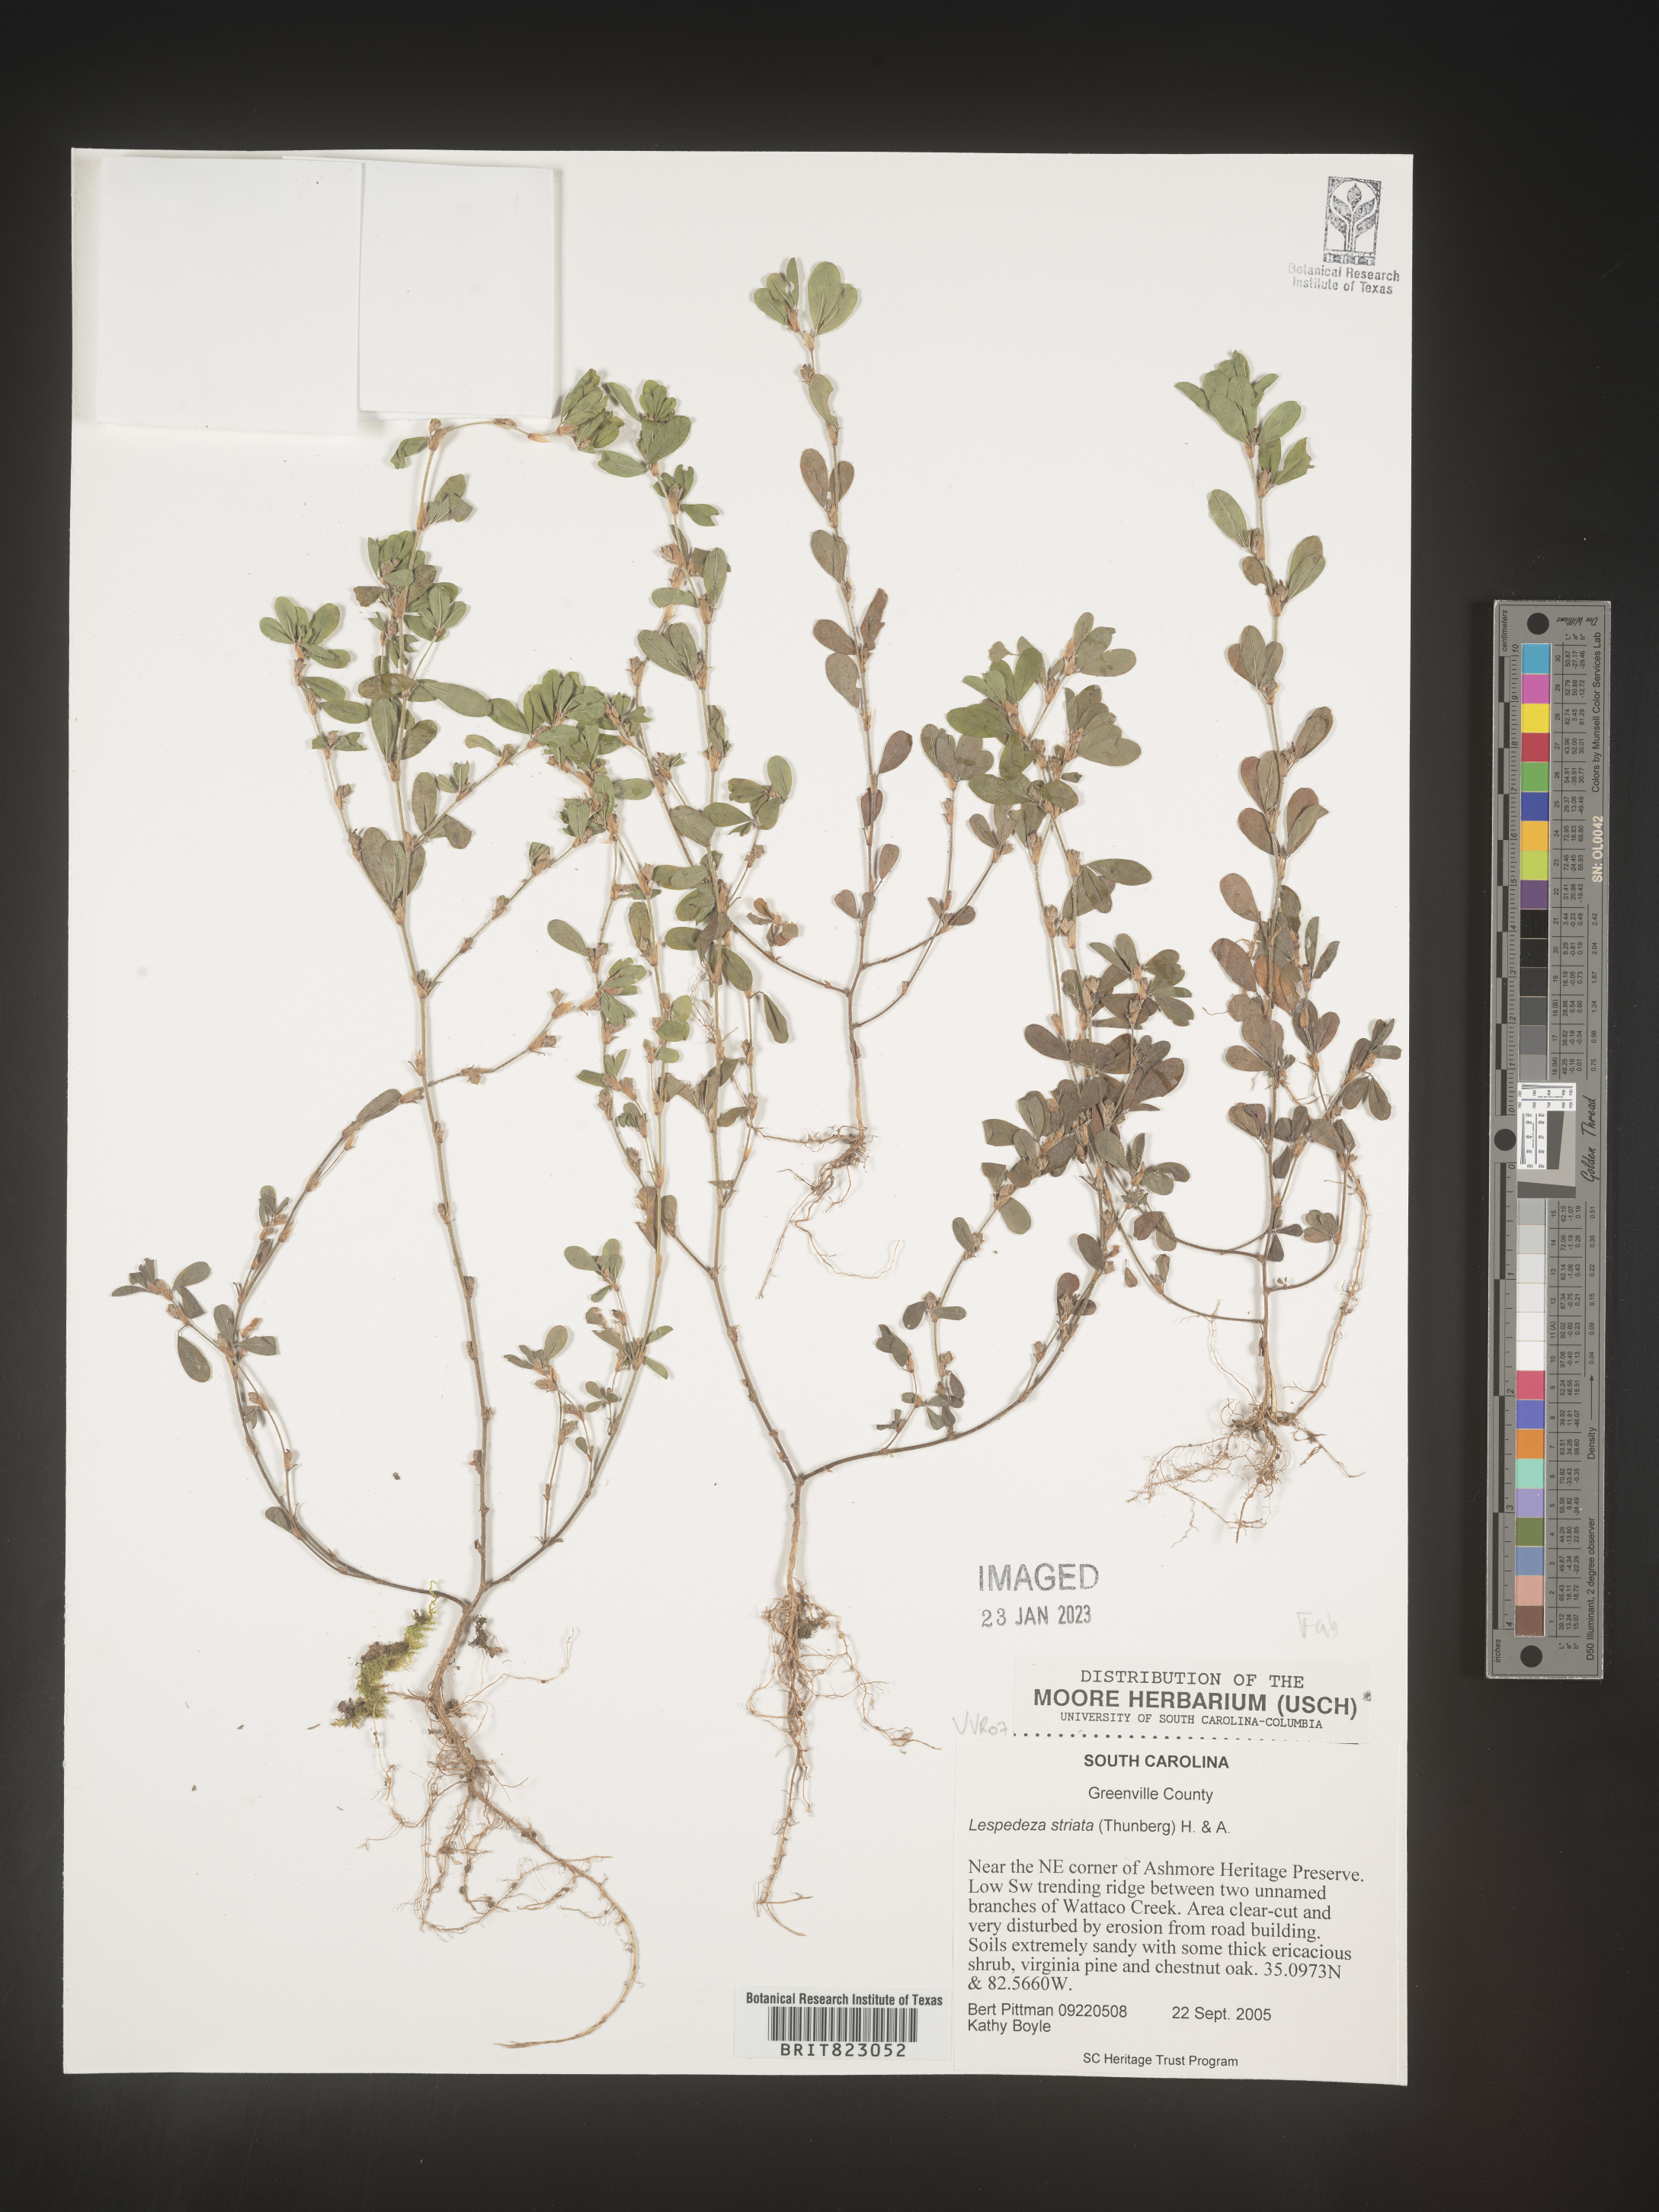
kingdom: Plantae
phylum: Tracheophyta
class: Magnoliopsida
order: Fabales
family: Fabaceae
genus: Kummerowia
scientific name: Kummerowia striata
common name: Japanese clover
